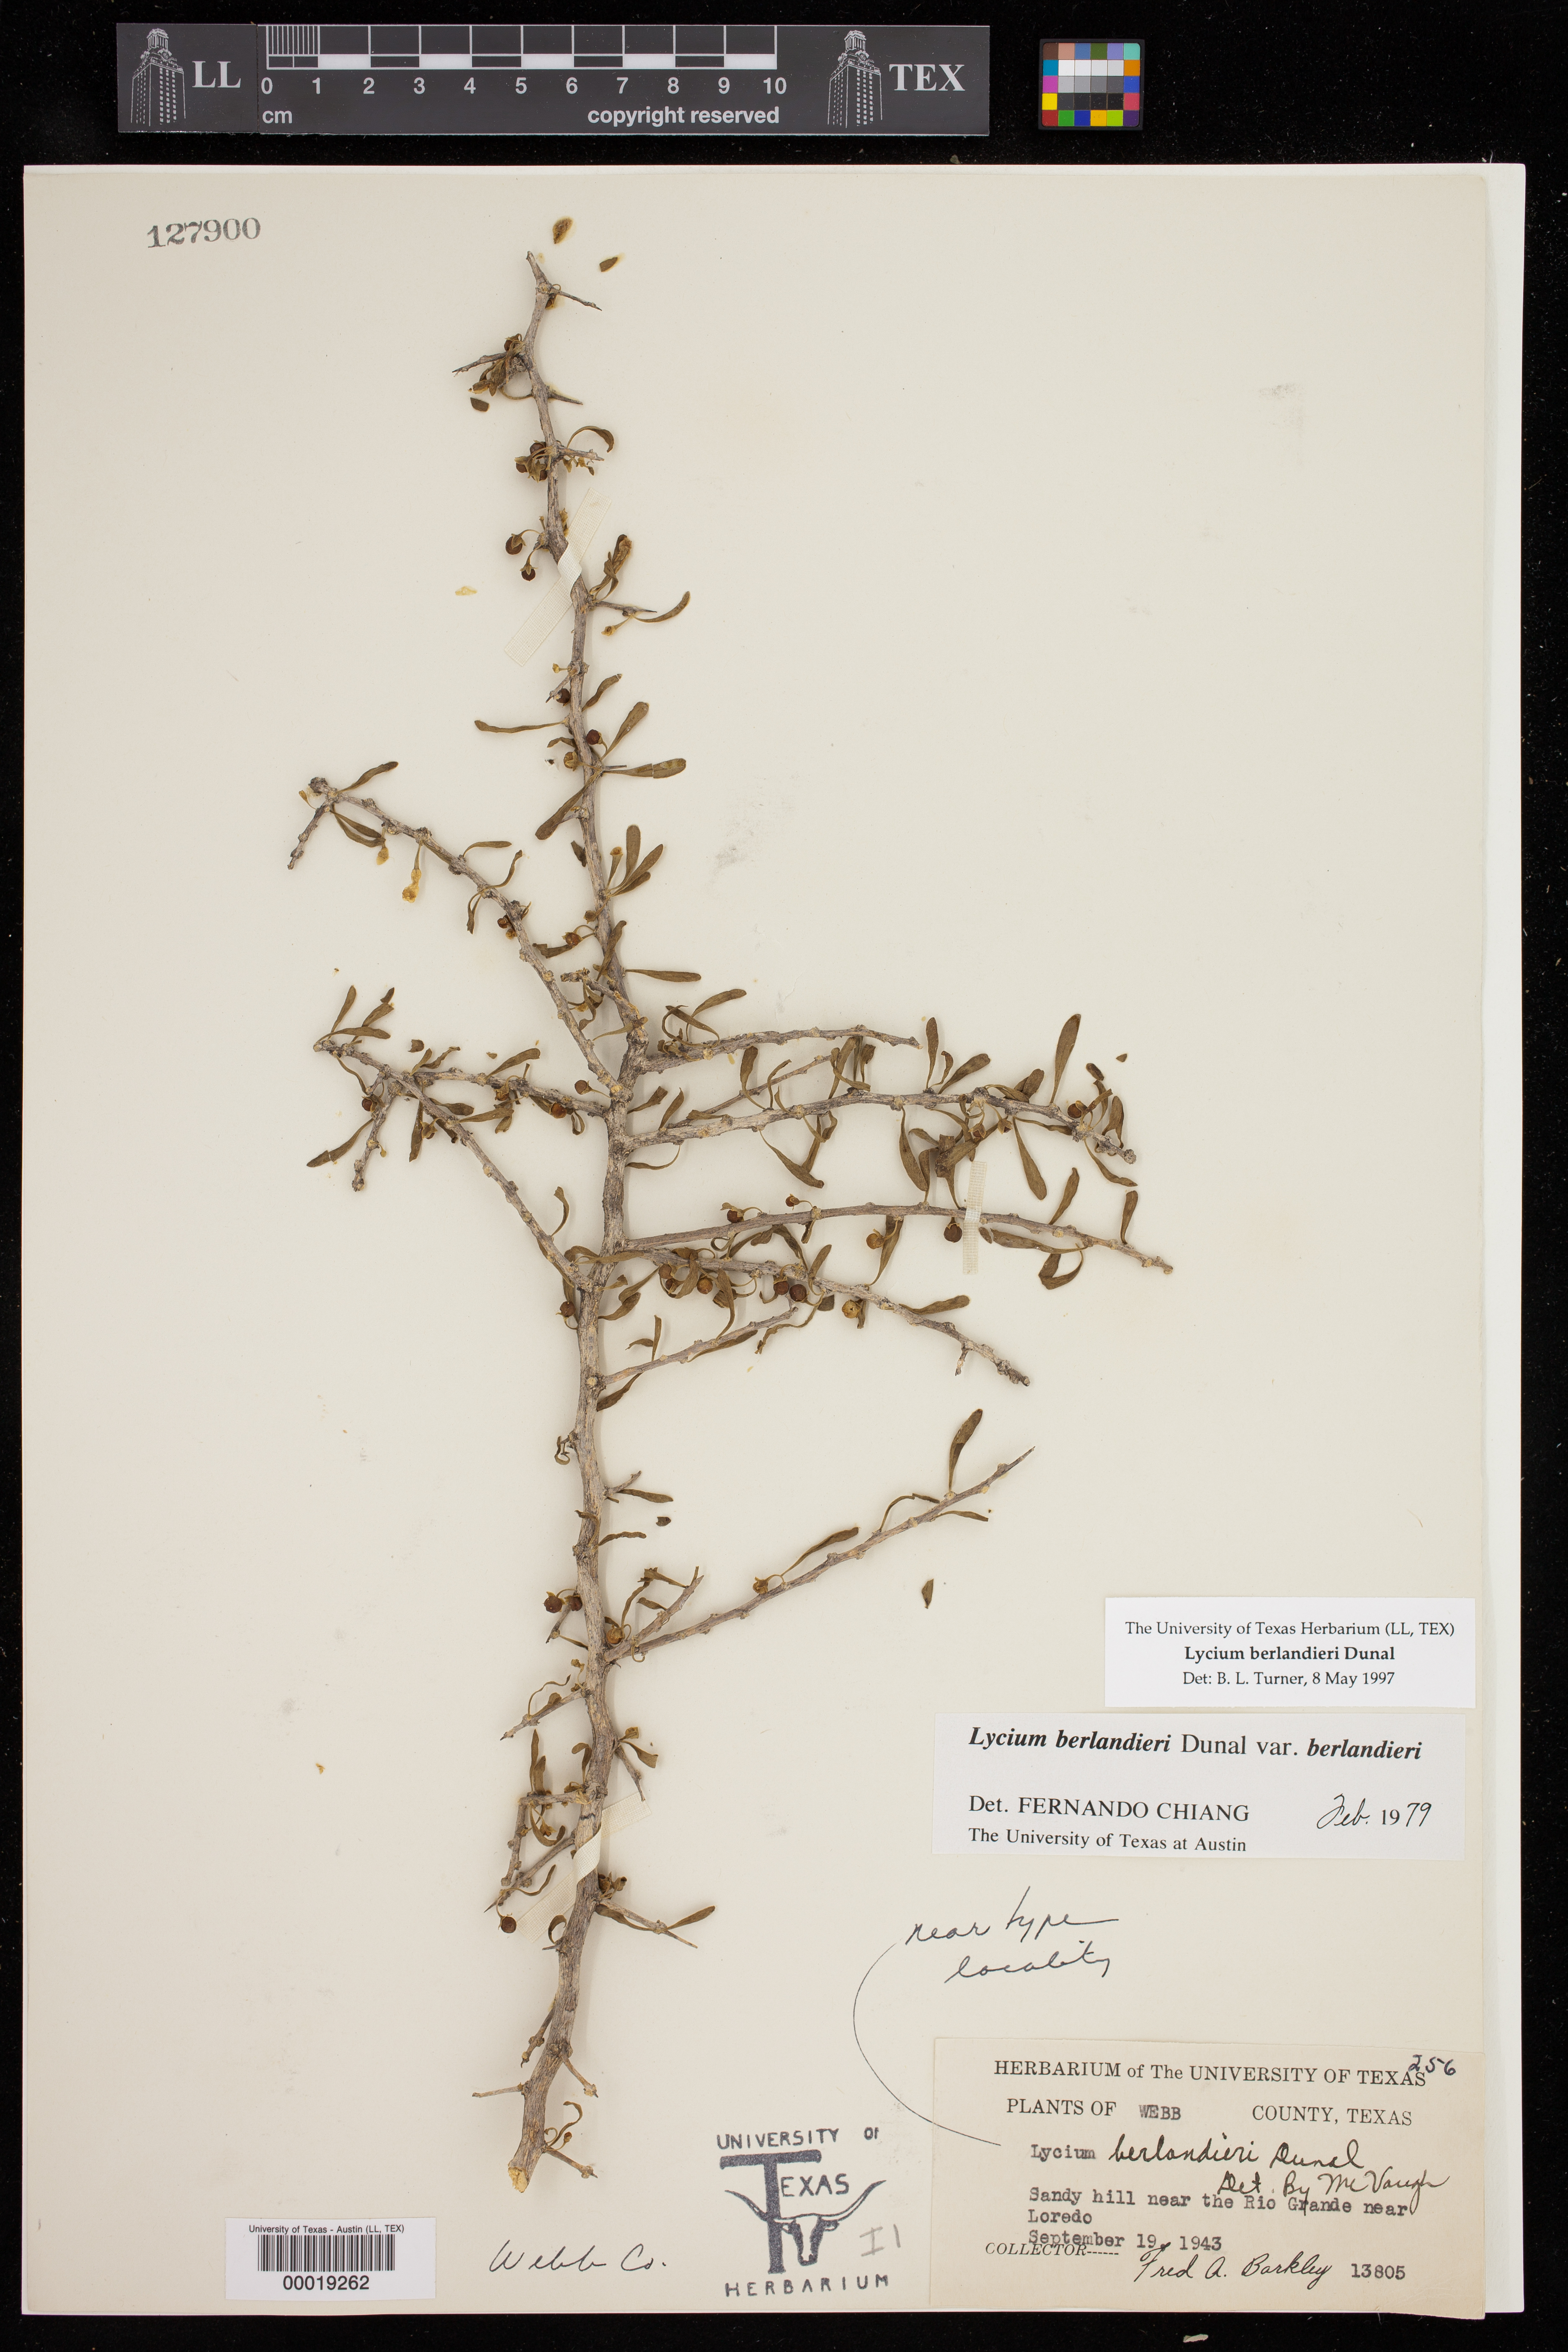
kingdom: Plantae
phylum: Tracheophyta
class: Magnoliopsida
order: Solanales
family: Solanaceae
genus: Lycium
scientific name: Lycium berlandieri
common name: Berlandier wolfberry
